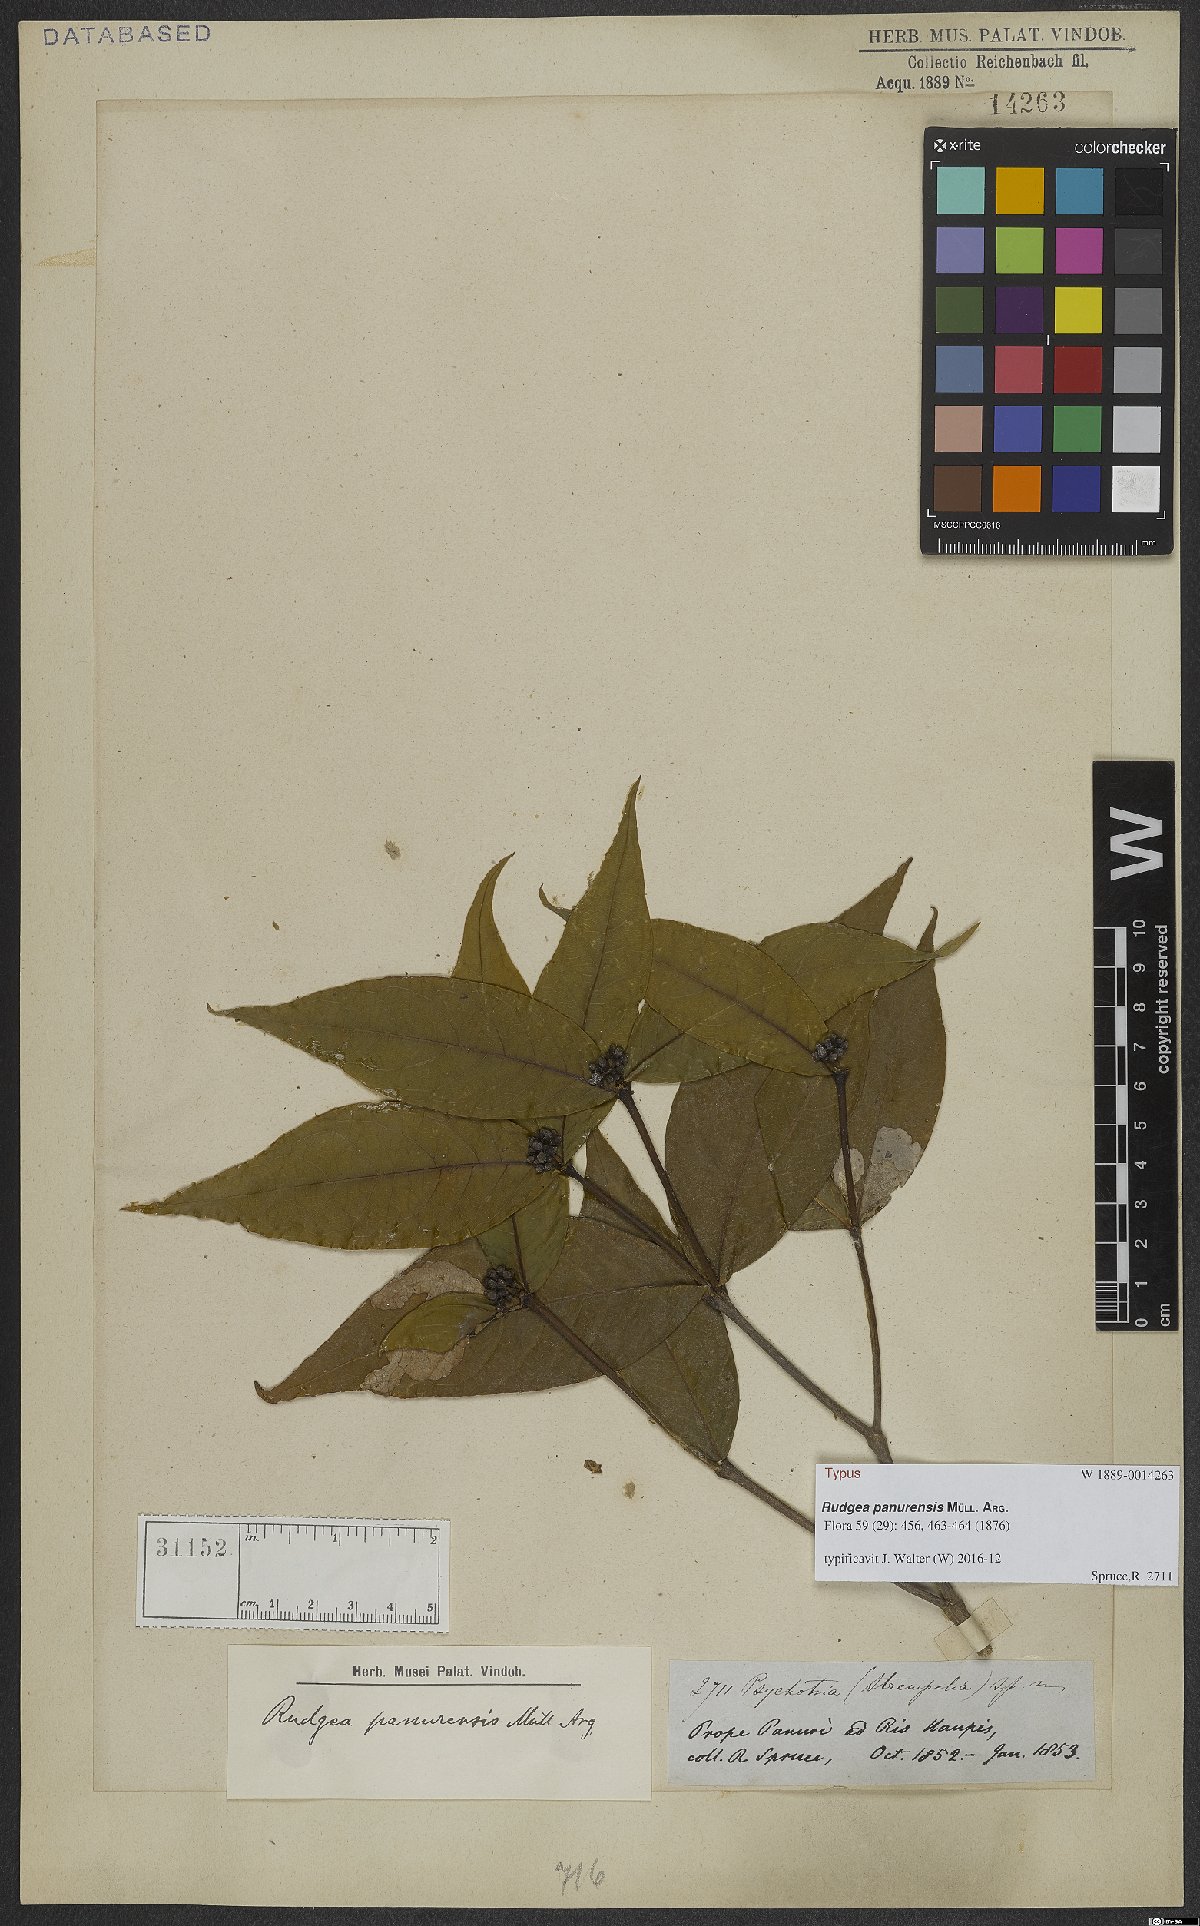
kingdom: Plantae
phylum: Tracheophyta
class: Magnoliopsida
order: Gentianales
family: Rubiaceae
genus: Rudgea
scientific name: Rudgea panurensis
